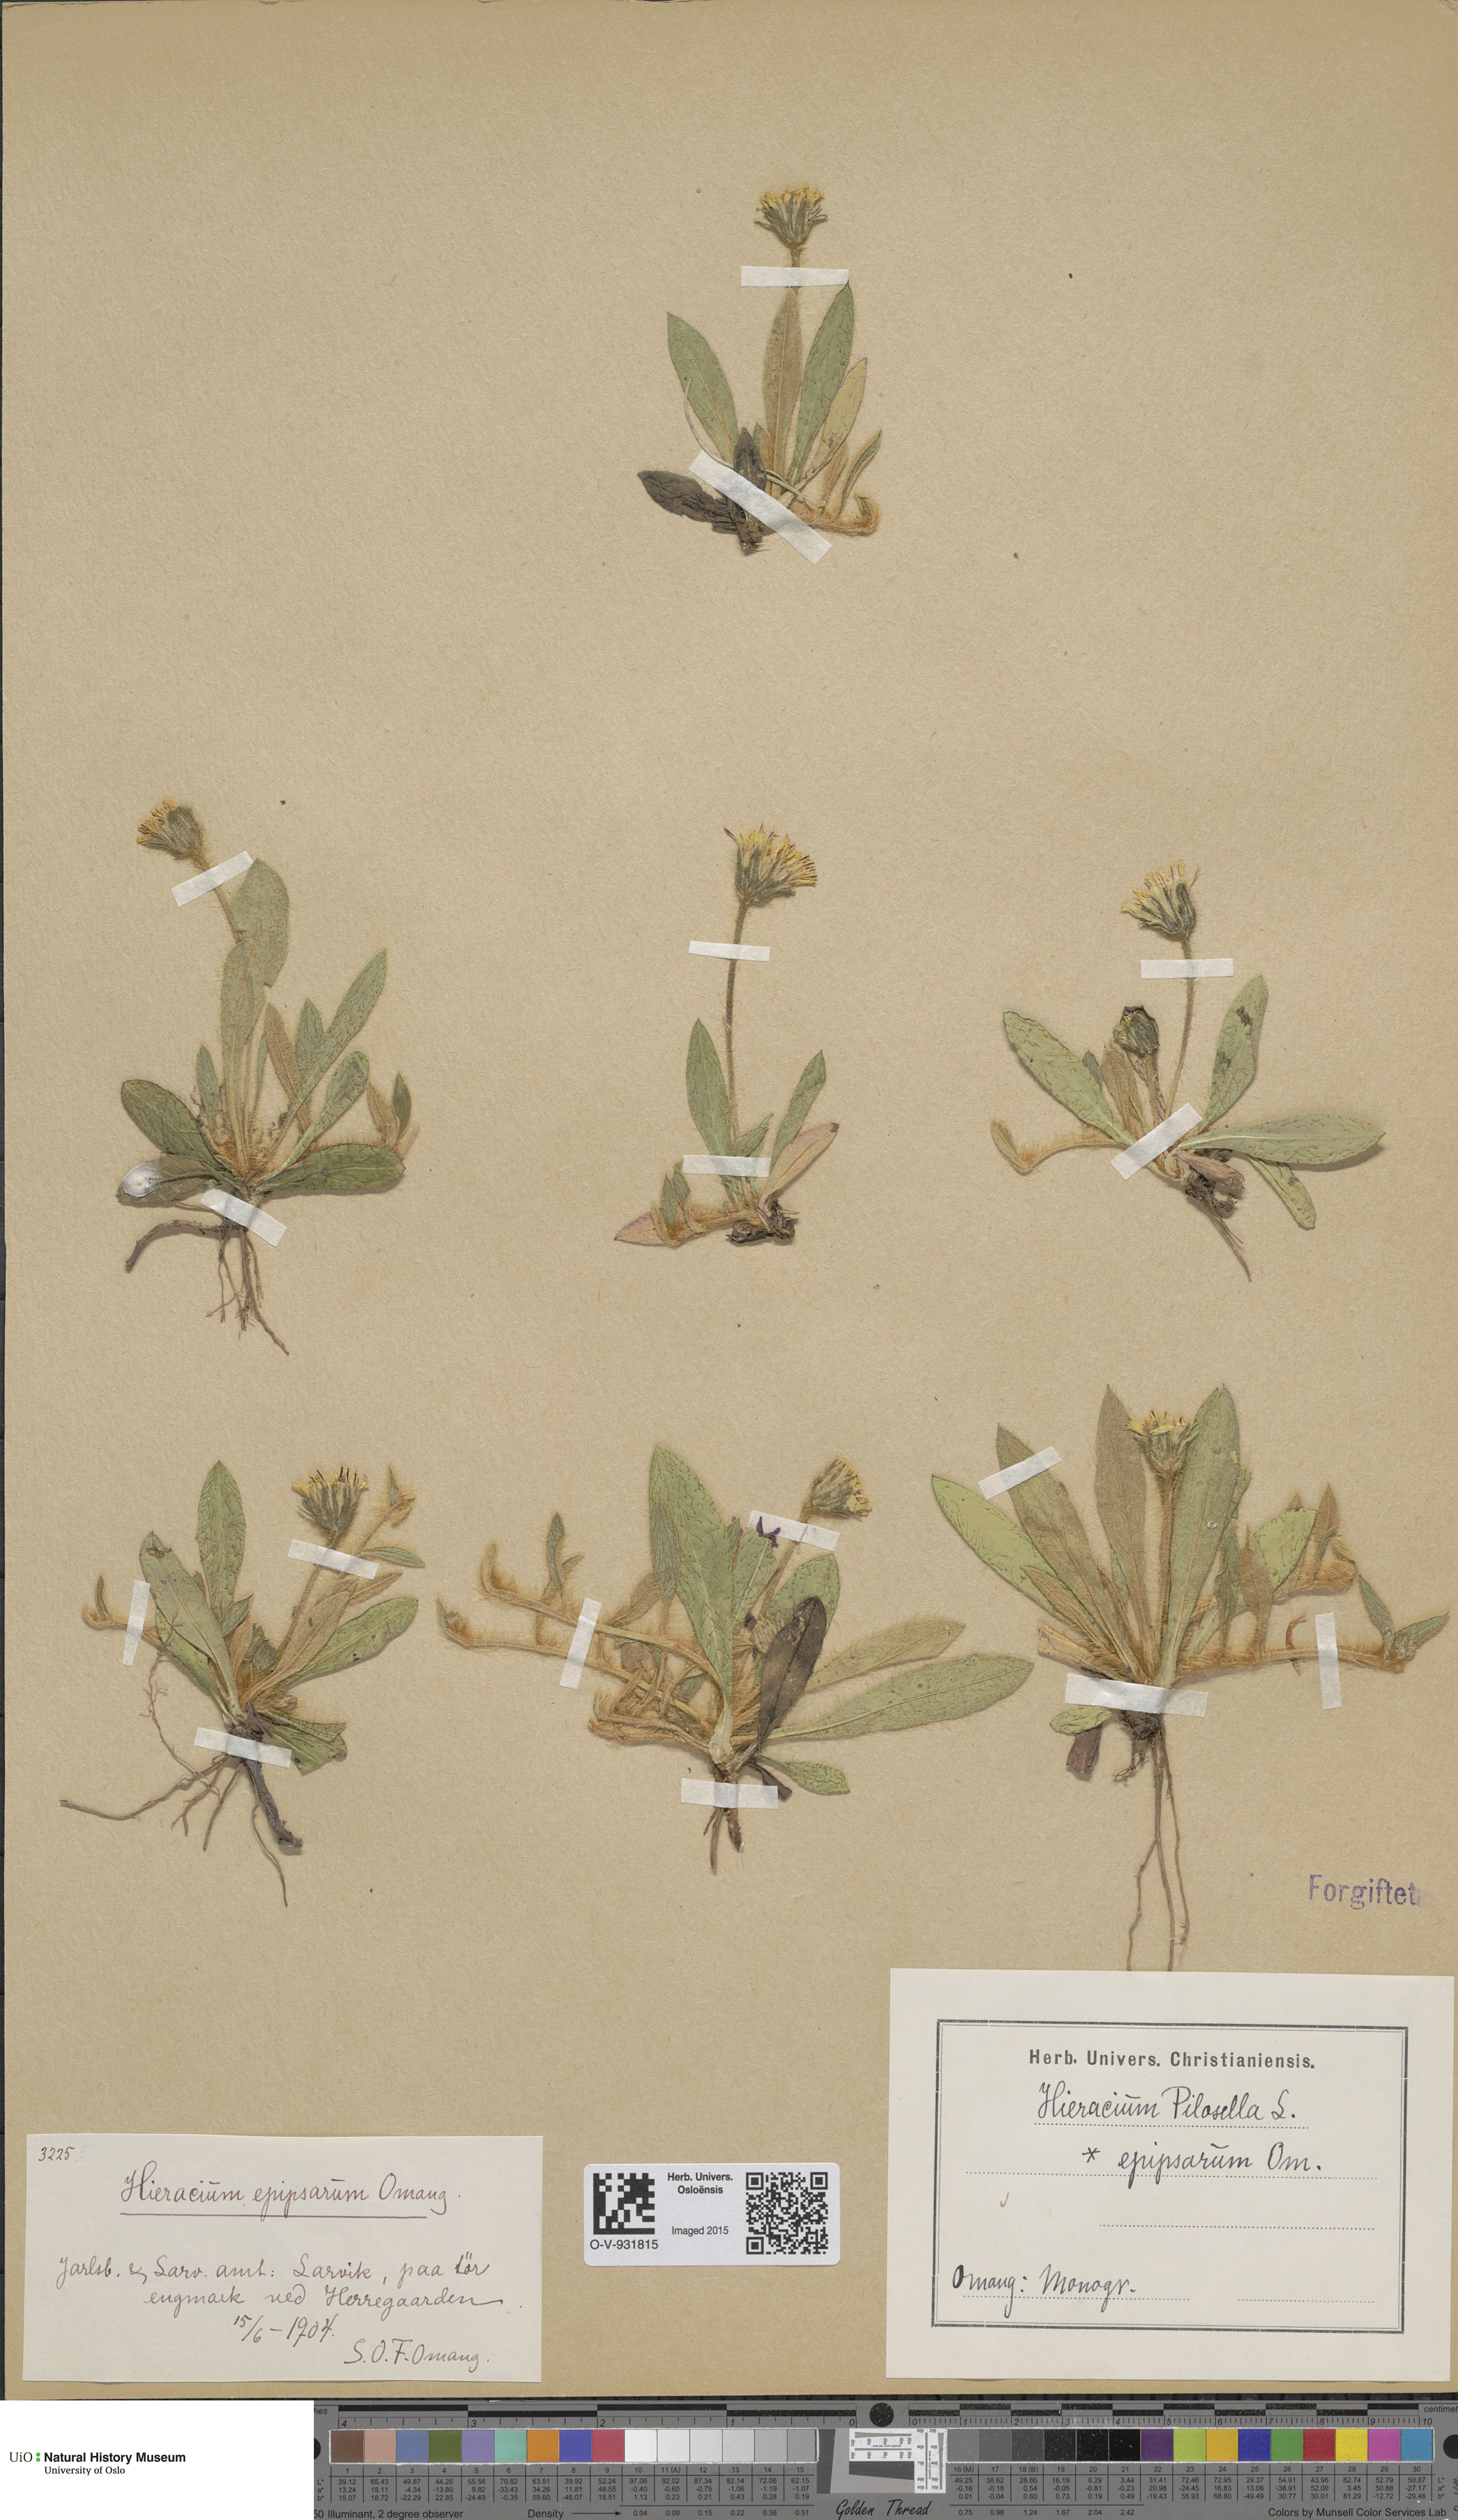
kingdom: Plantae
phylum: Tracheophyta
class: Magnoliopsida
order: Asterales
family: Asteraceae
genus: Pilosella
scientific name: Pilosella officinarum
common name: Mouse-ear hawkweed
